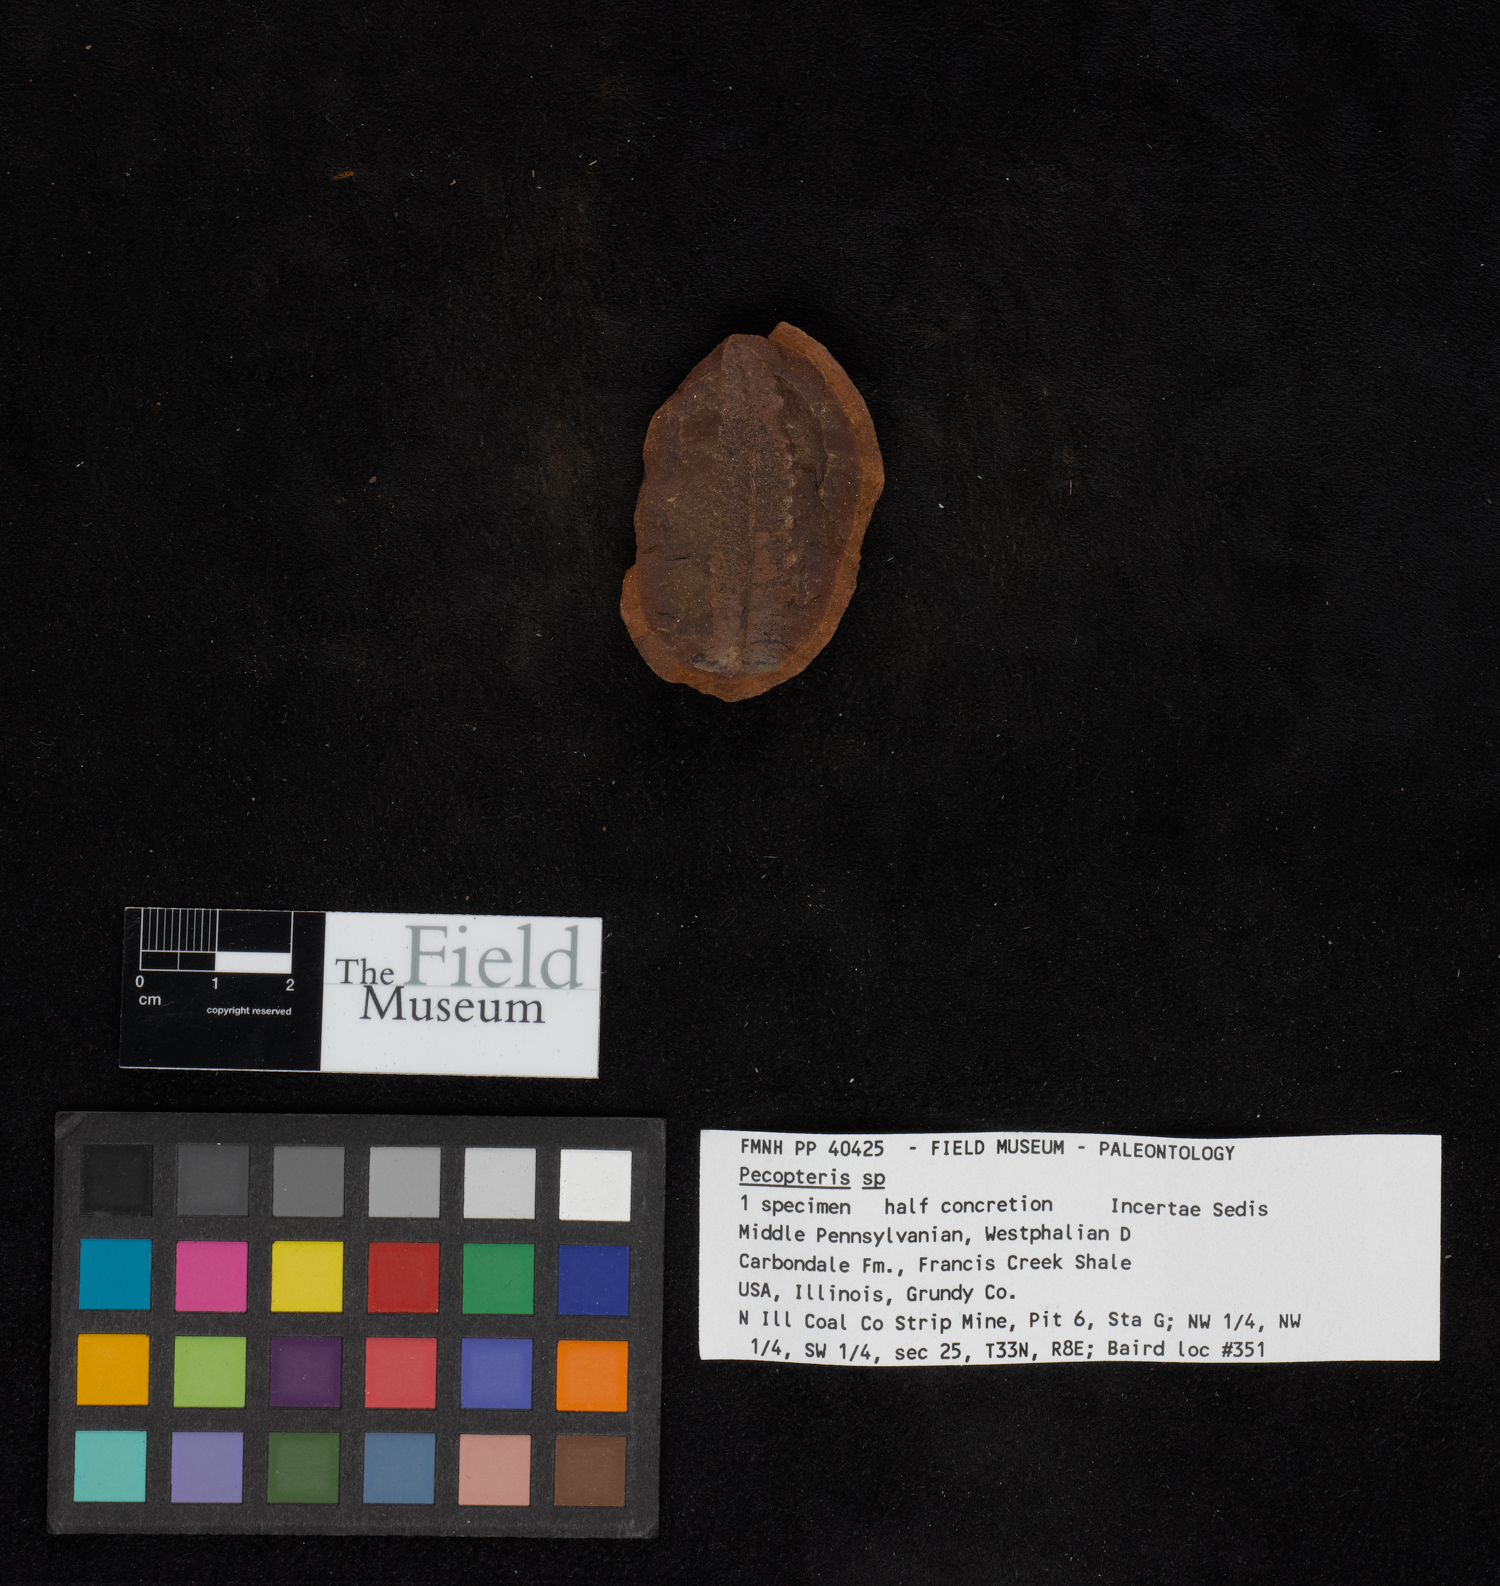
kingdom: Plantae
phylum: Tracheophyta
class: Polypodiopsida
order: Marattiales
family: Asterothecaceae
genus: Pecopteris
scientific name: Pecopteris
